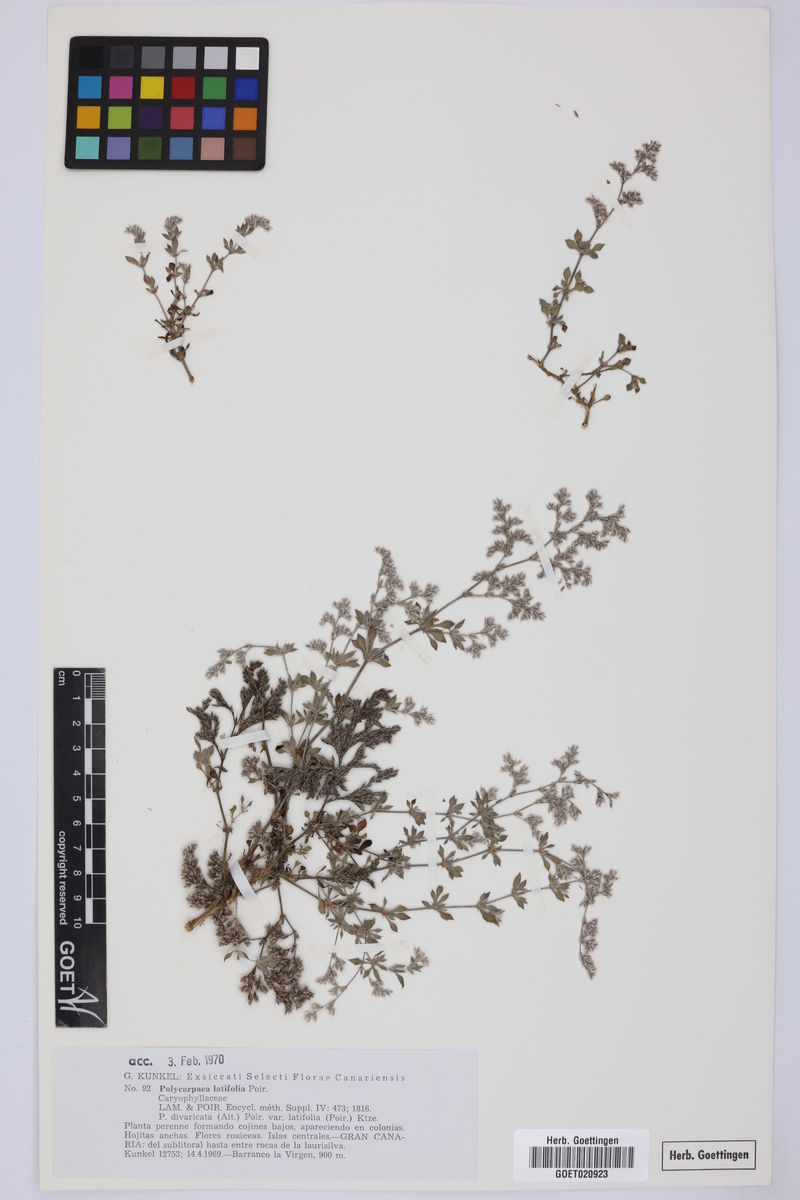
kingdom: Plantae
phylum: Tracheophyta
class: Magnoliopsida
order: Caryophyllales
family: Caryophyllaceae
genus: Polycarpaea
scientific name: Polycarpaea latifolia
